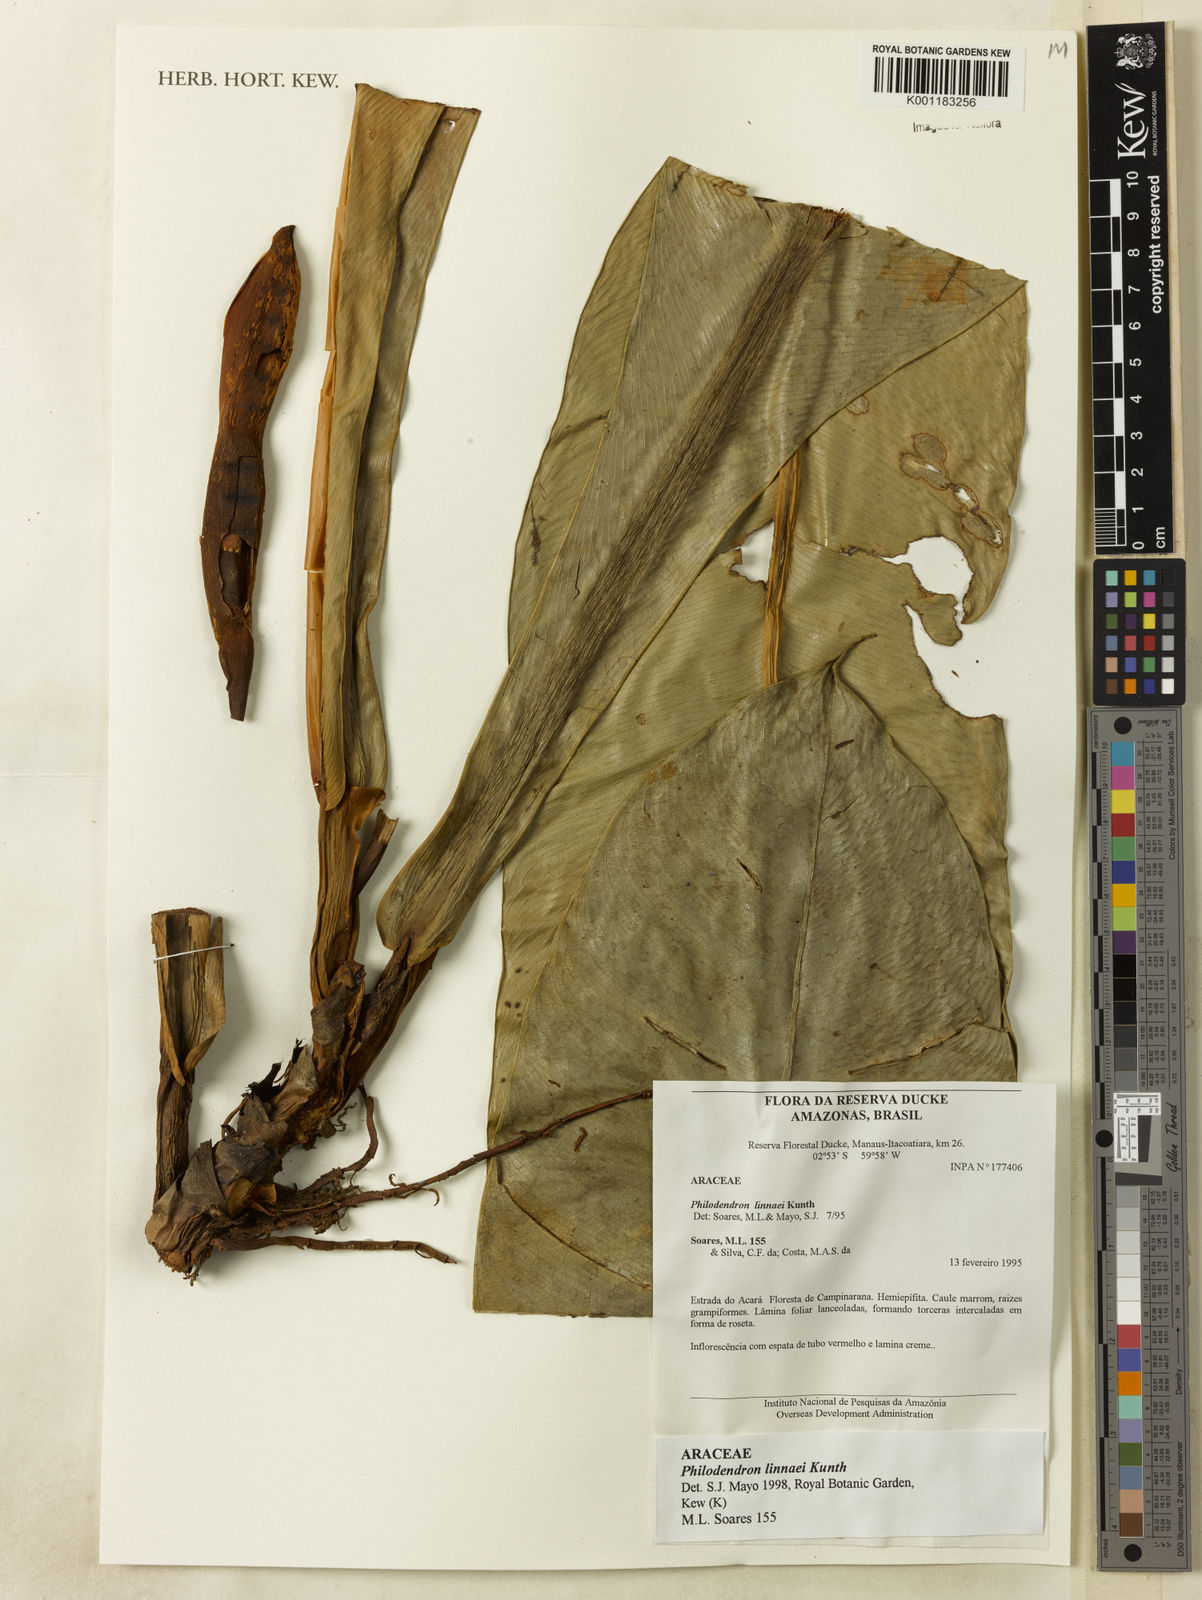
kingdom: Plantae
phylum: Tracheophyta
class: Liliopsida
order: Alismatales
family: Araceae
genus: Philodendron
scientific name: Philodendron linnaei
